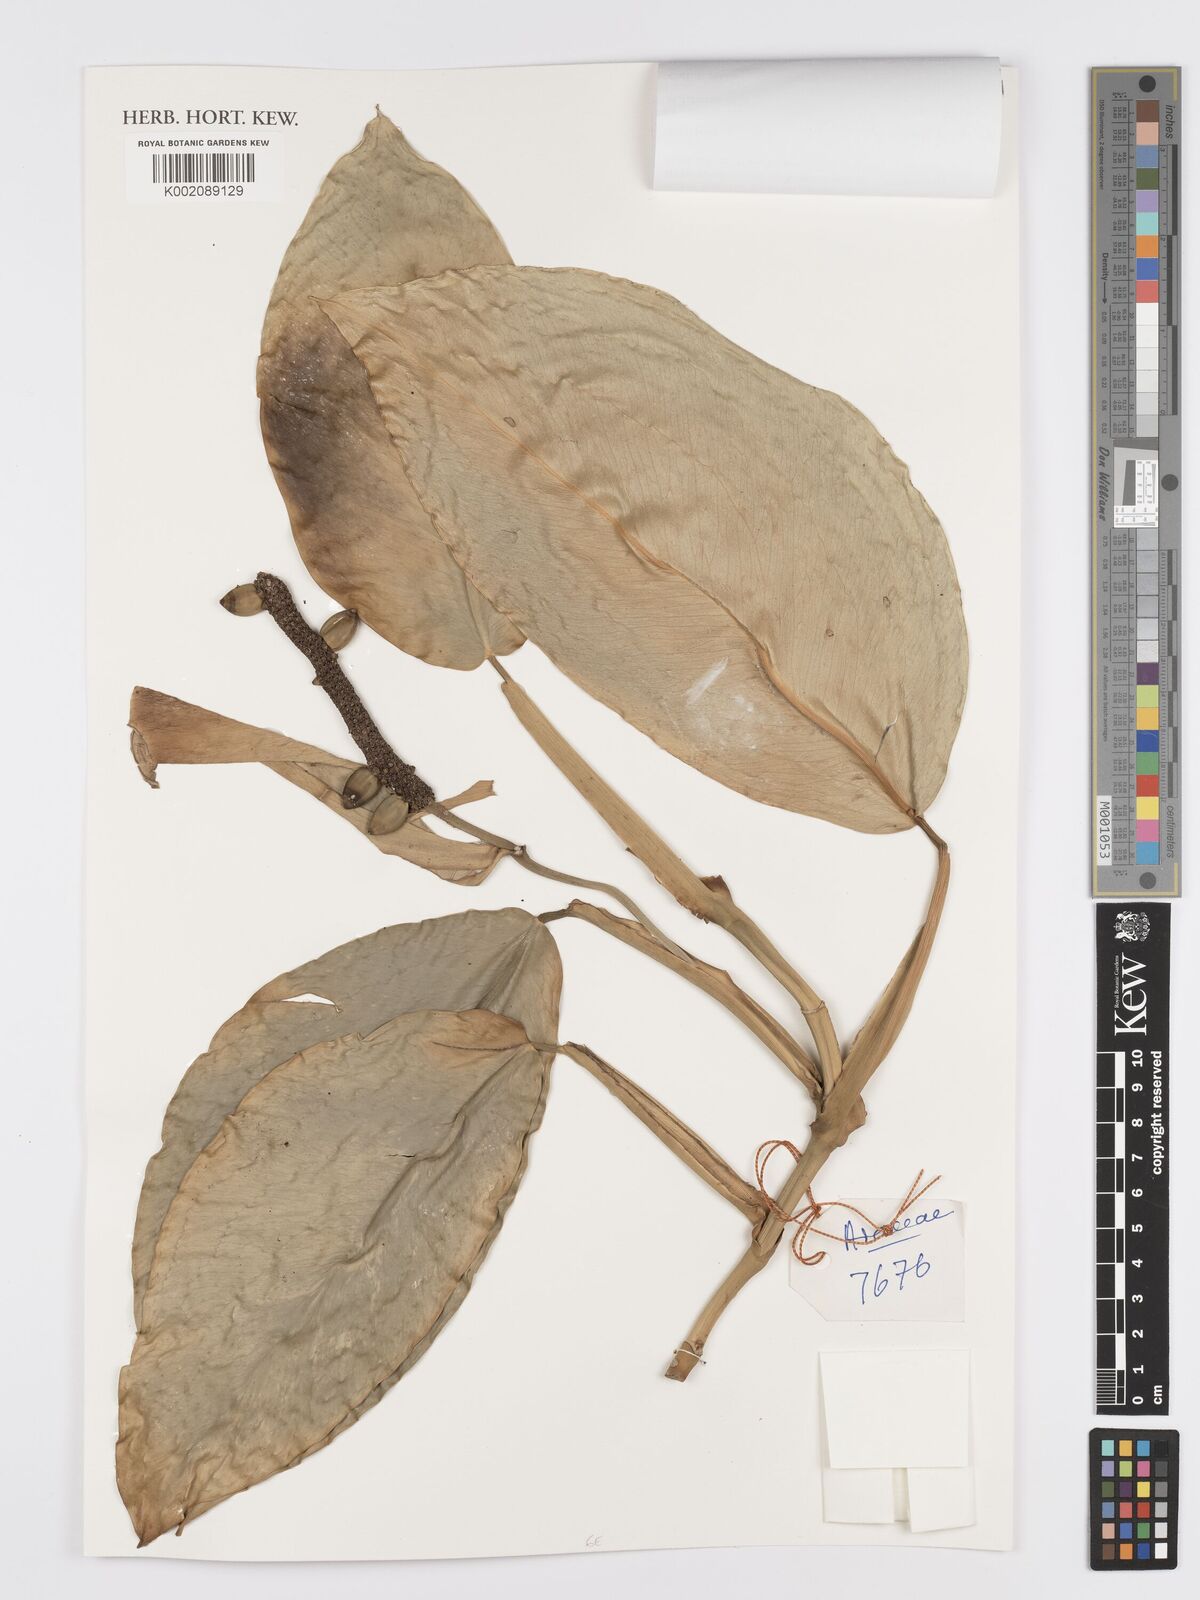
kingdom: Plantae
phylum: Tracheophyta
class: Liliopsida
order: Alismatales
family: Araceae
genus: Pothos
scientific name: Pothos tener
